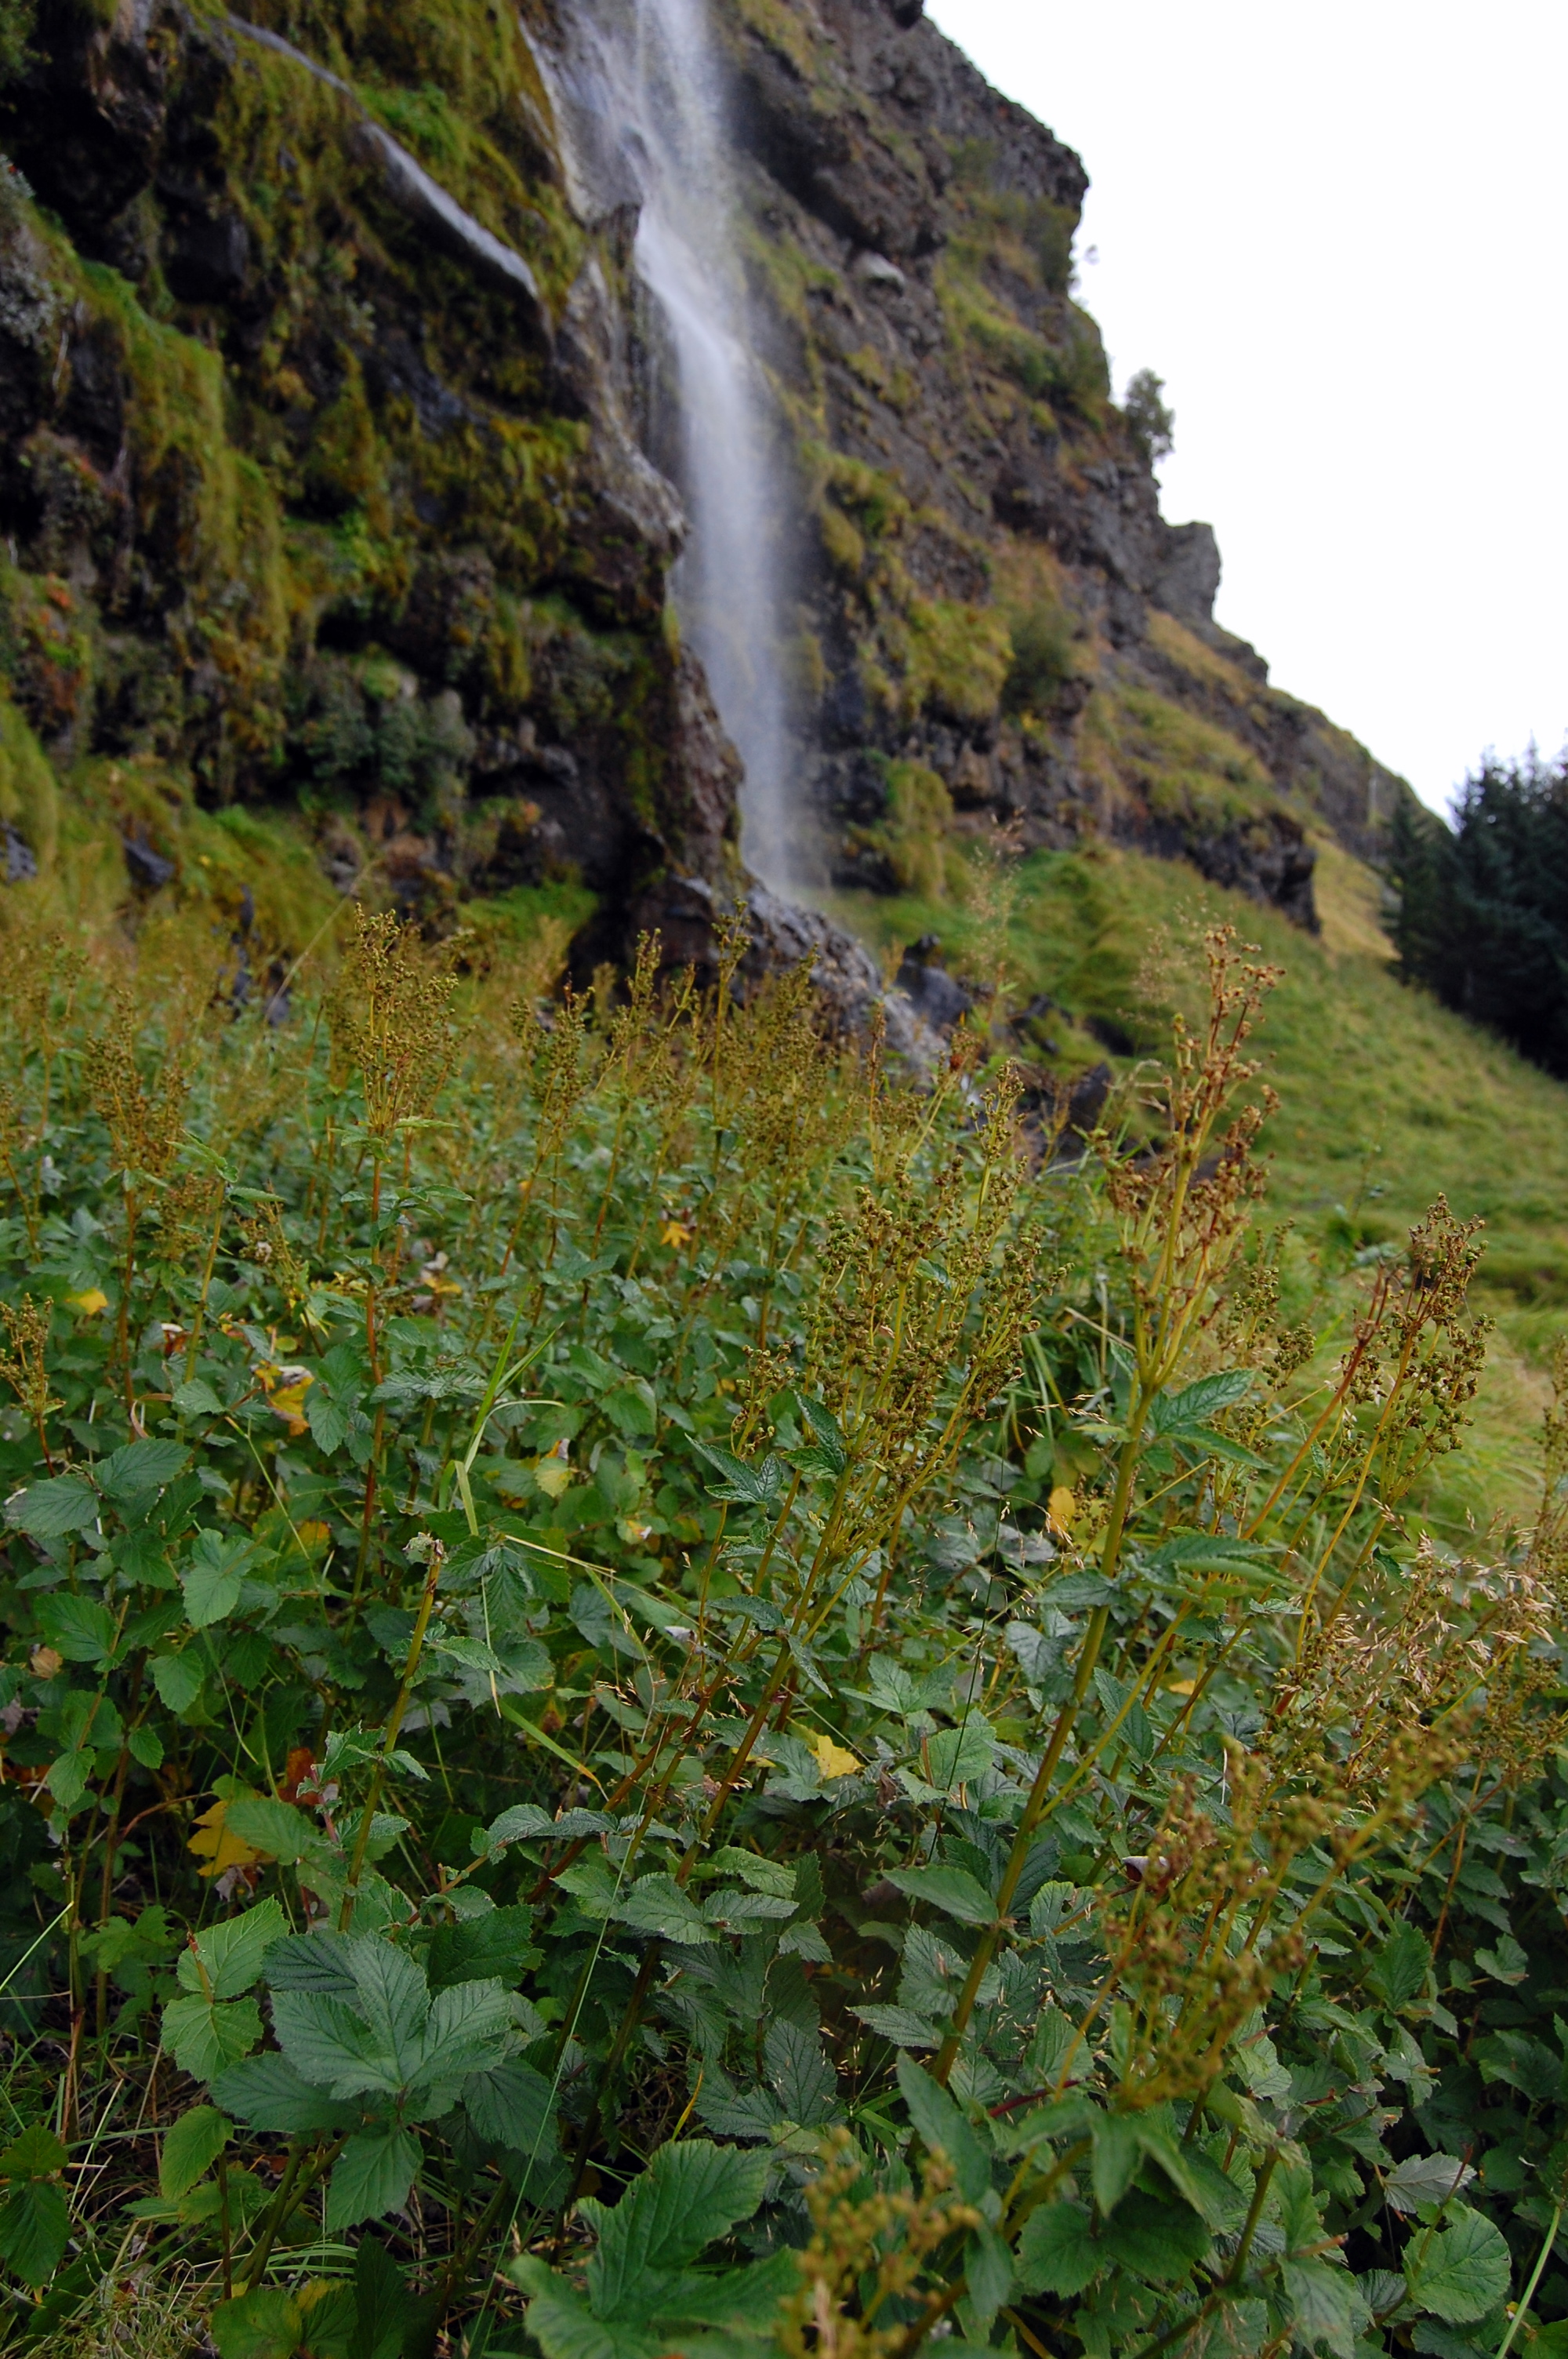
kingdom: Plantae
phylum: Tracheophyta
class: Magnoliopsida
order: Rosales
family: Rosaceae
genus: Filipendula
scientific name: Filipendula ulmaria
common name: Meadowsweet
